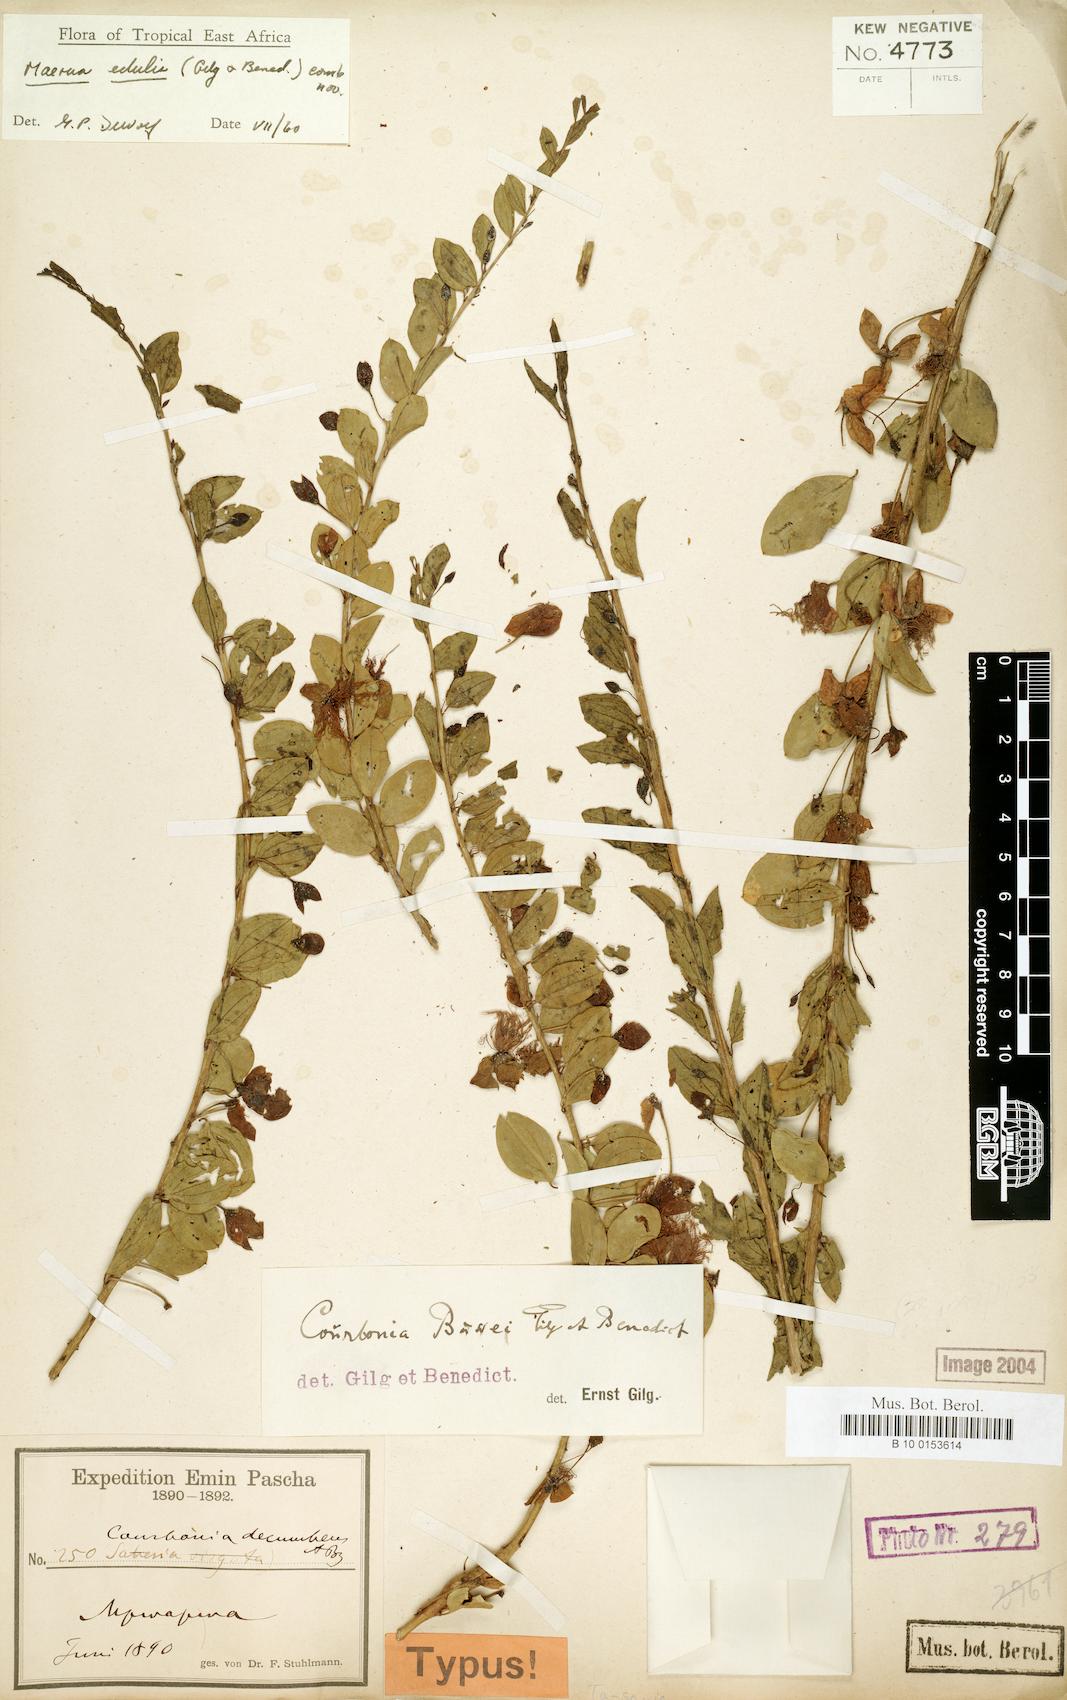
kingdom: Plantae
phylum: Tracheophyta
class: Magnoliopsida
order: Brassicales
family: Capparaceae
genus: Maerua
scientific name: Maerua edulis
